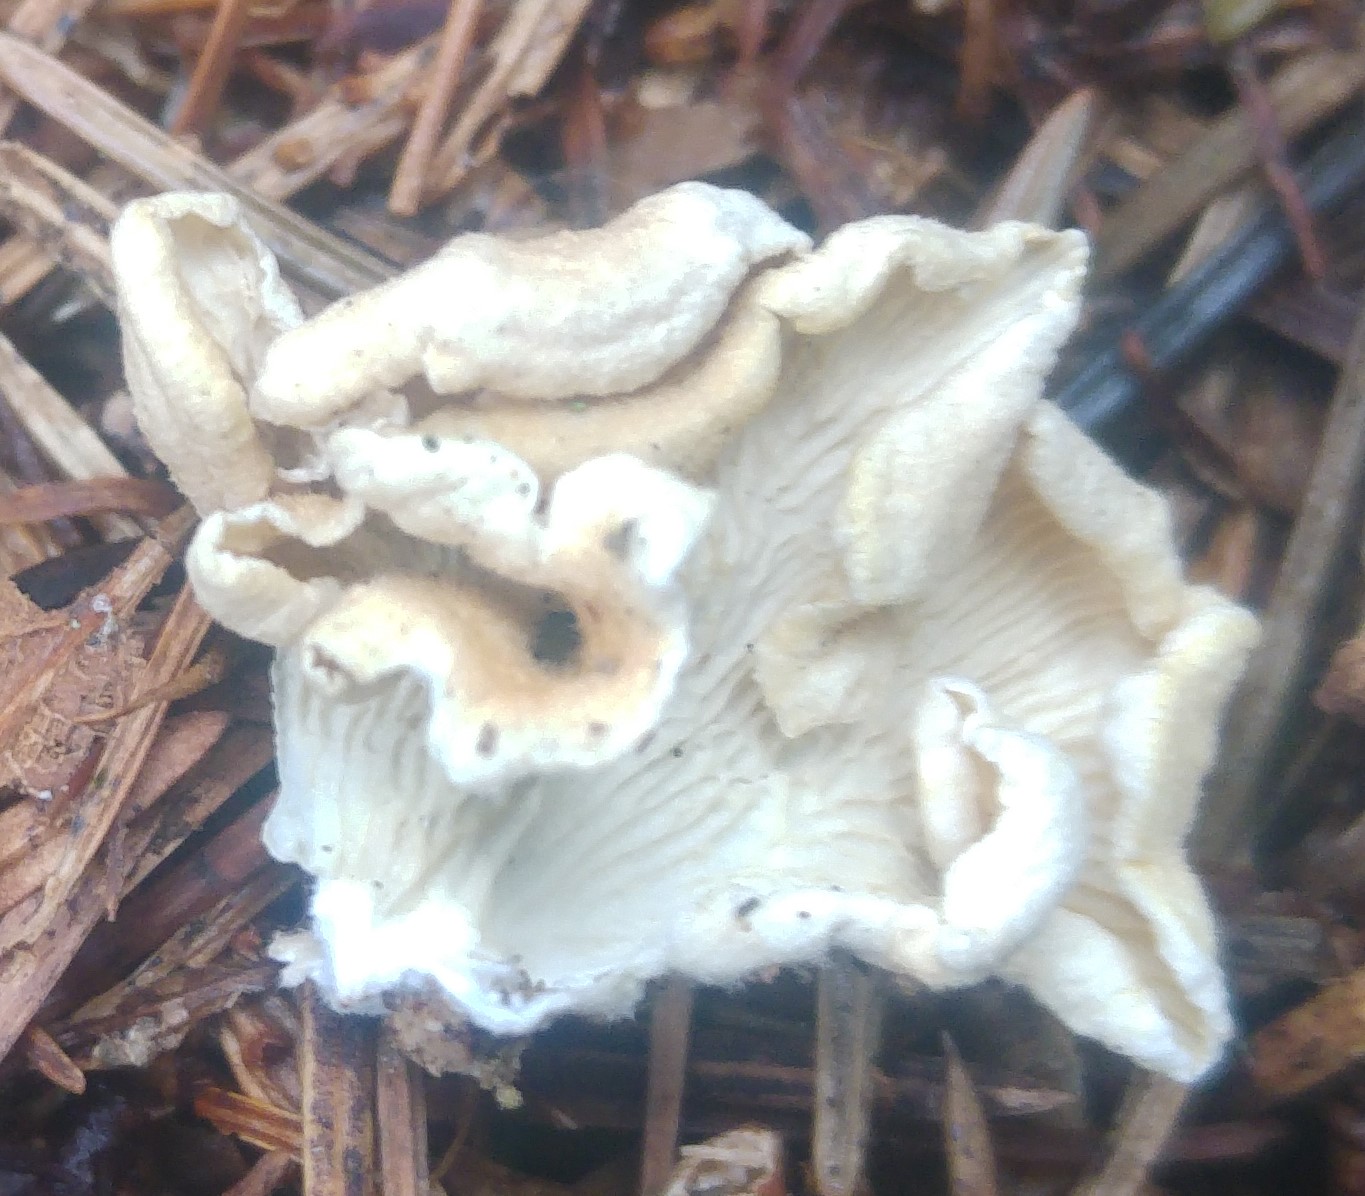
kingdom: Fungi
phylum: Basidiomycota
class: Agaricomycetes
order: Amylocorticiales
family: Amylocorticiaceae
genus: Plicaturopsis
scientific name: Plicaturopsis crispa
